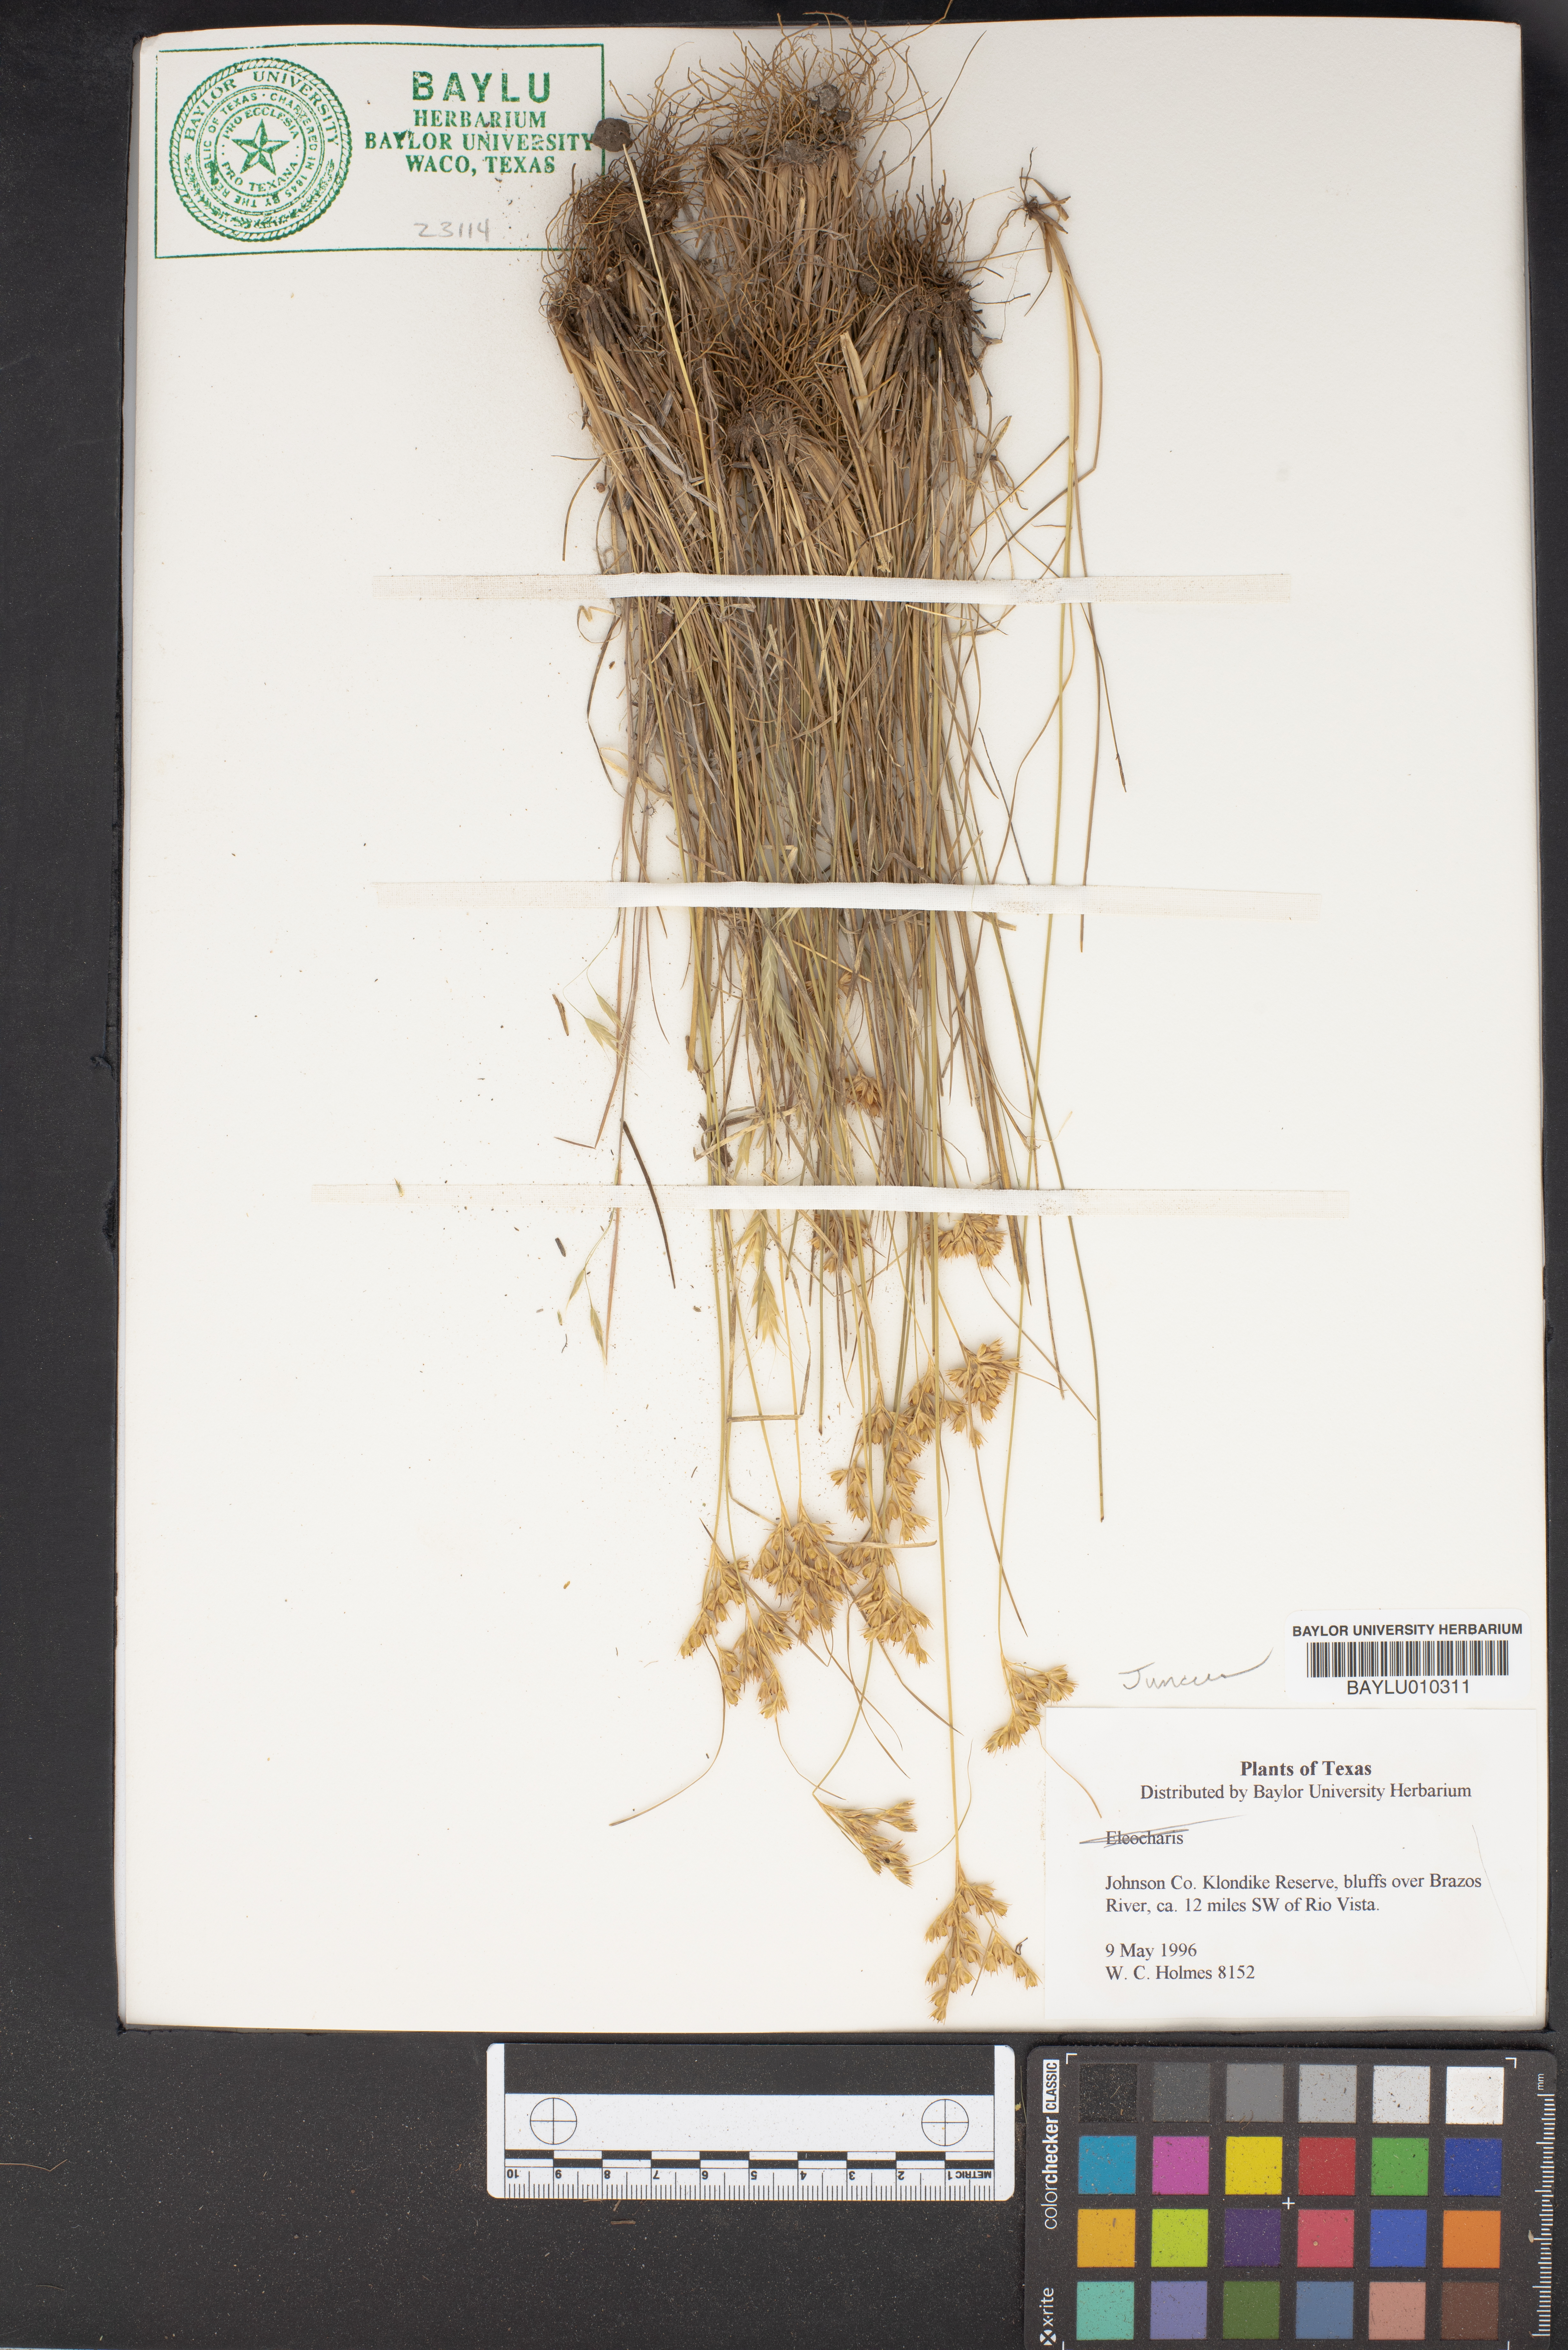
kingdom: Plantae
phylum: Tracheophyta
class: Liliopsida
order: Poales
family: Juncaceae
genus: Juncus
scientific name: Juncus
